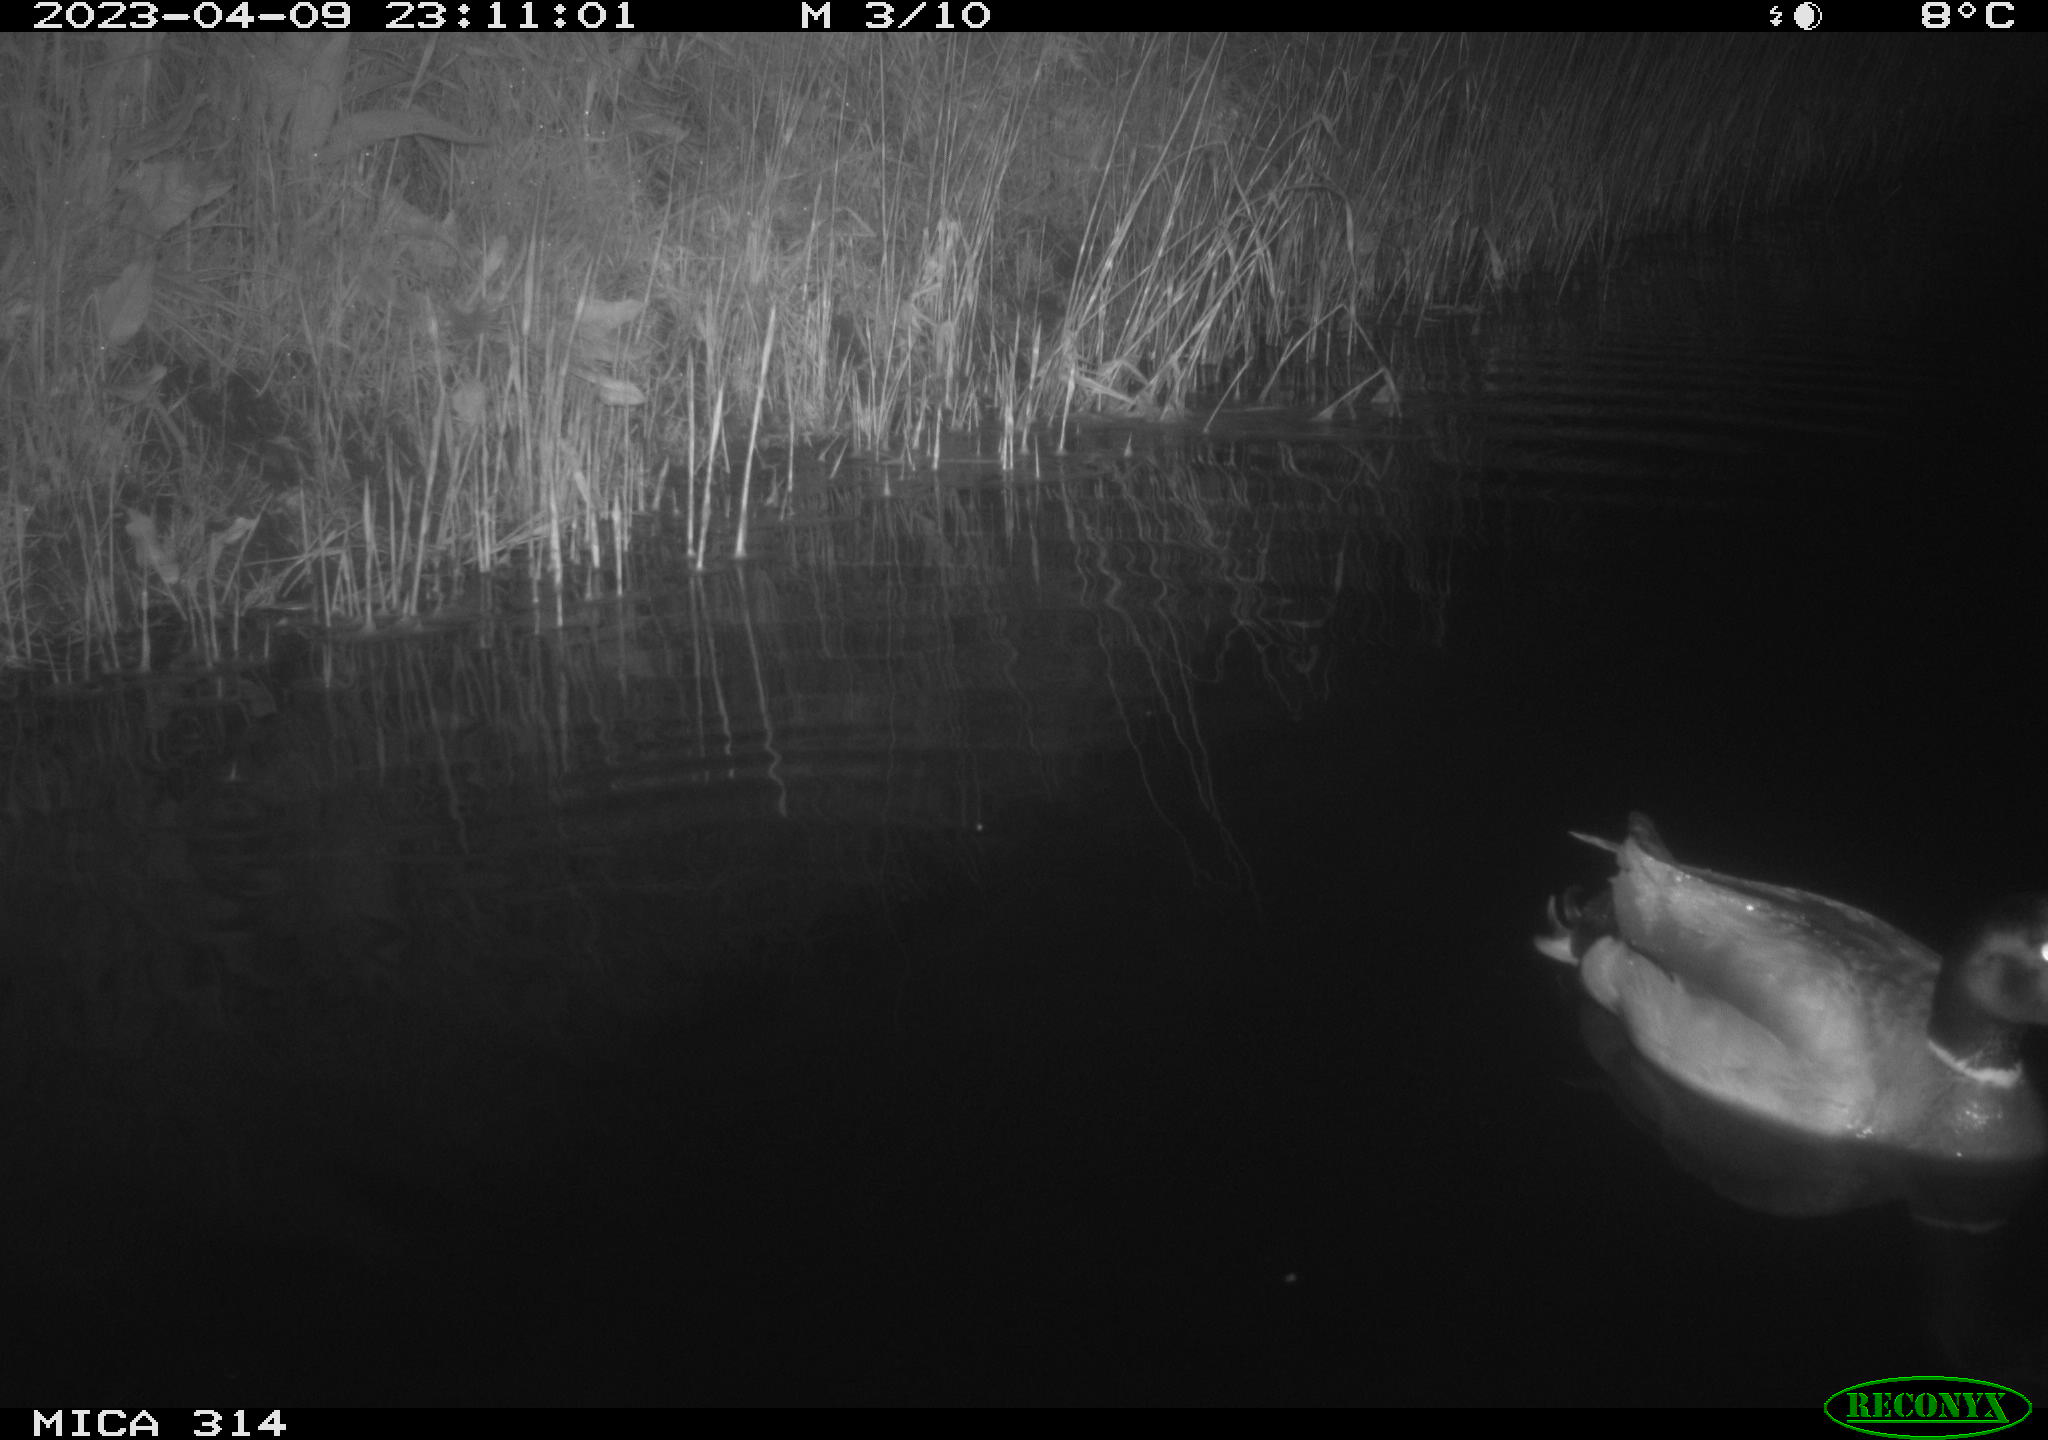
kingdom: Animalia
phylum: Chordata
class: Aves
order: Anseriformes
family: Anatidae
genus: Anas
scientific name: Anas
